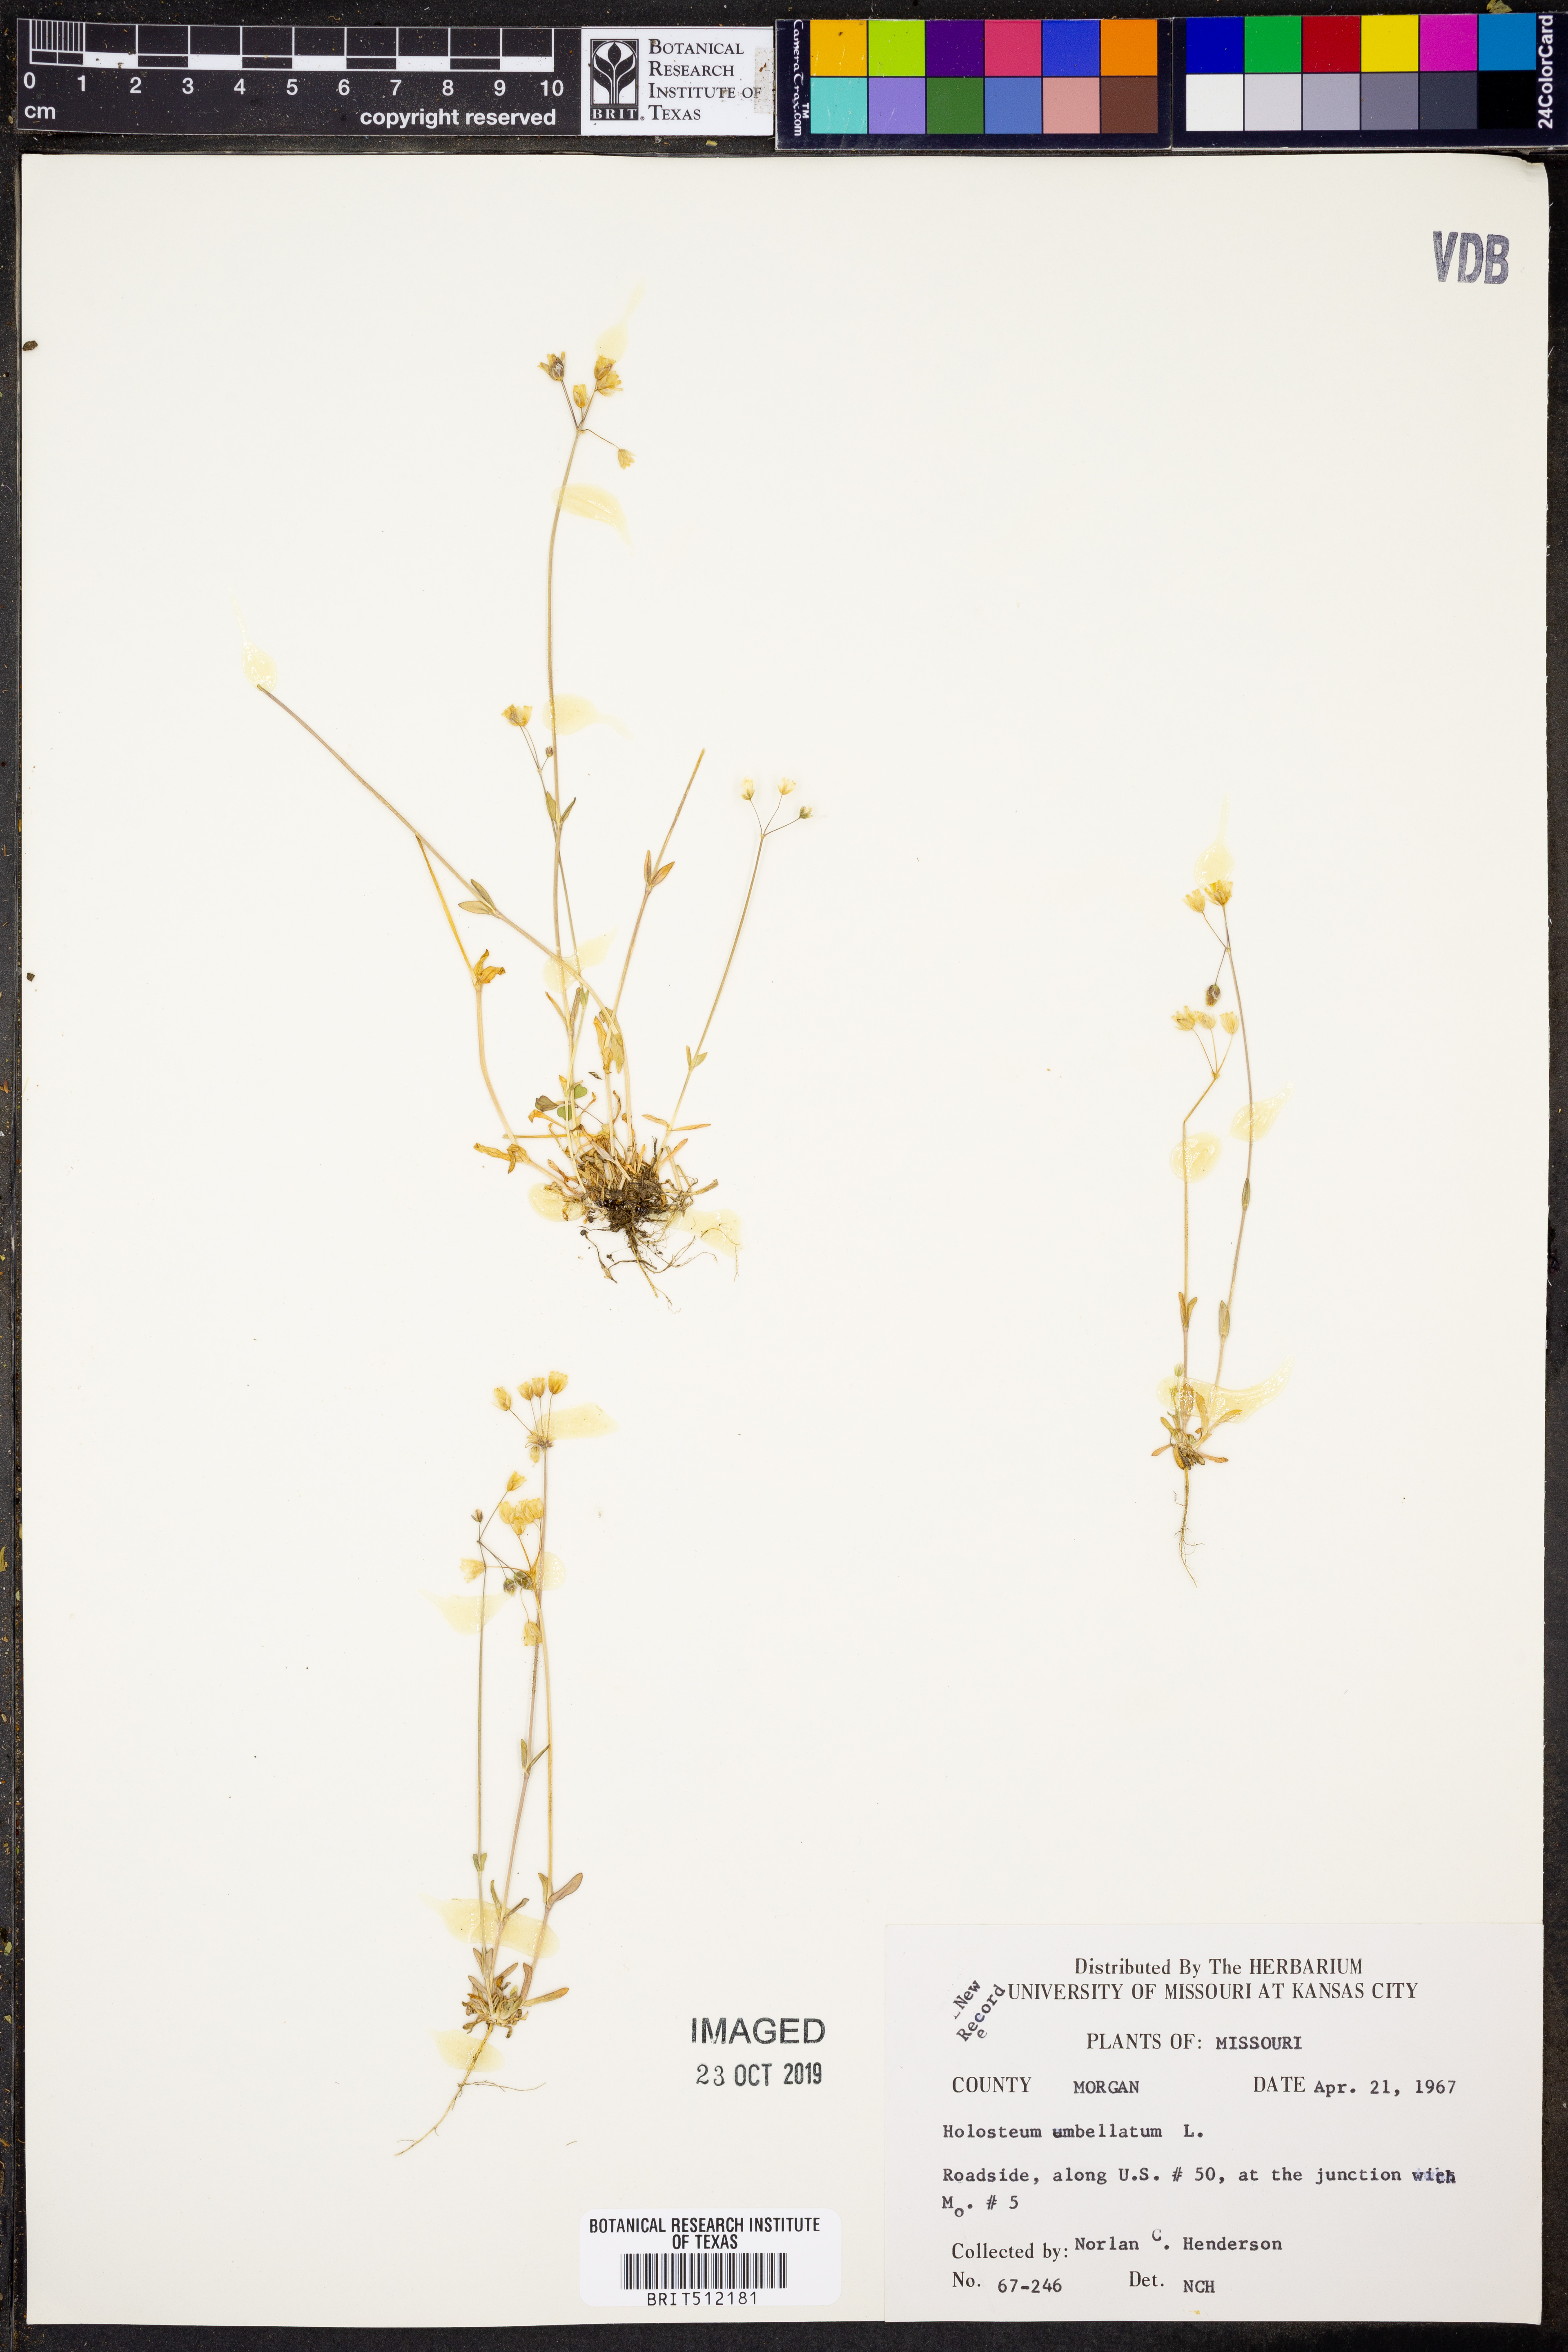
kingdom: Plantae
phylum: Tracheophyta
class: Magnoliopsida
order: Caryophyllales
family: Caryophyllaceae
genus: Holosteum
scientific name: Holosteum umbellatum
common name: Jagged chickweed
